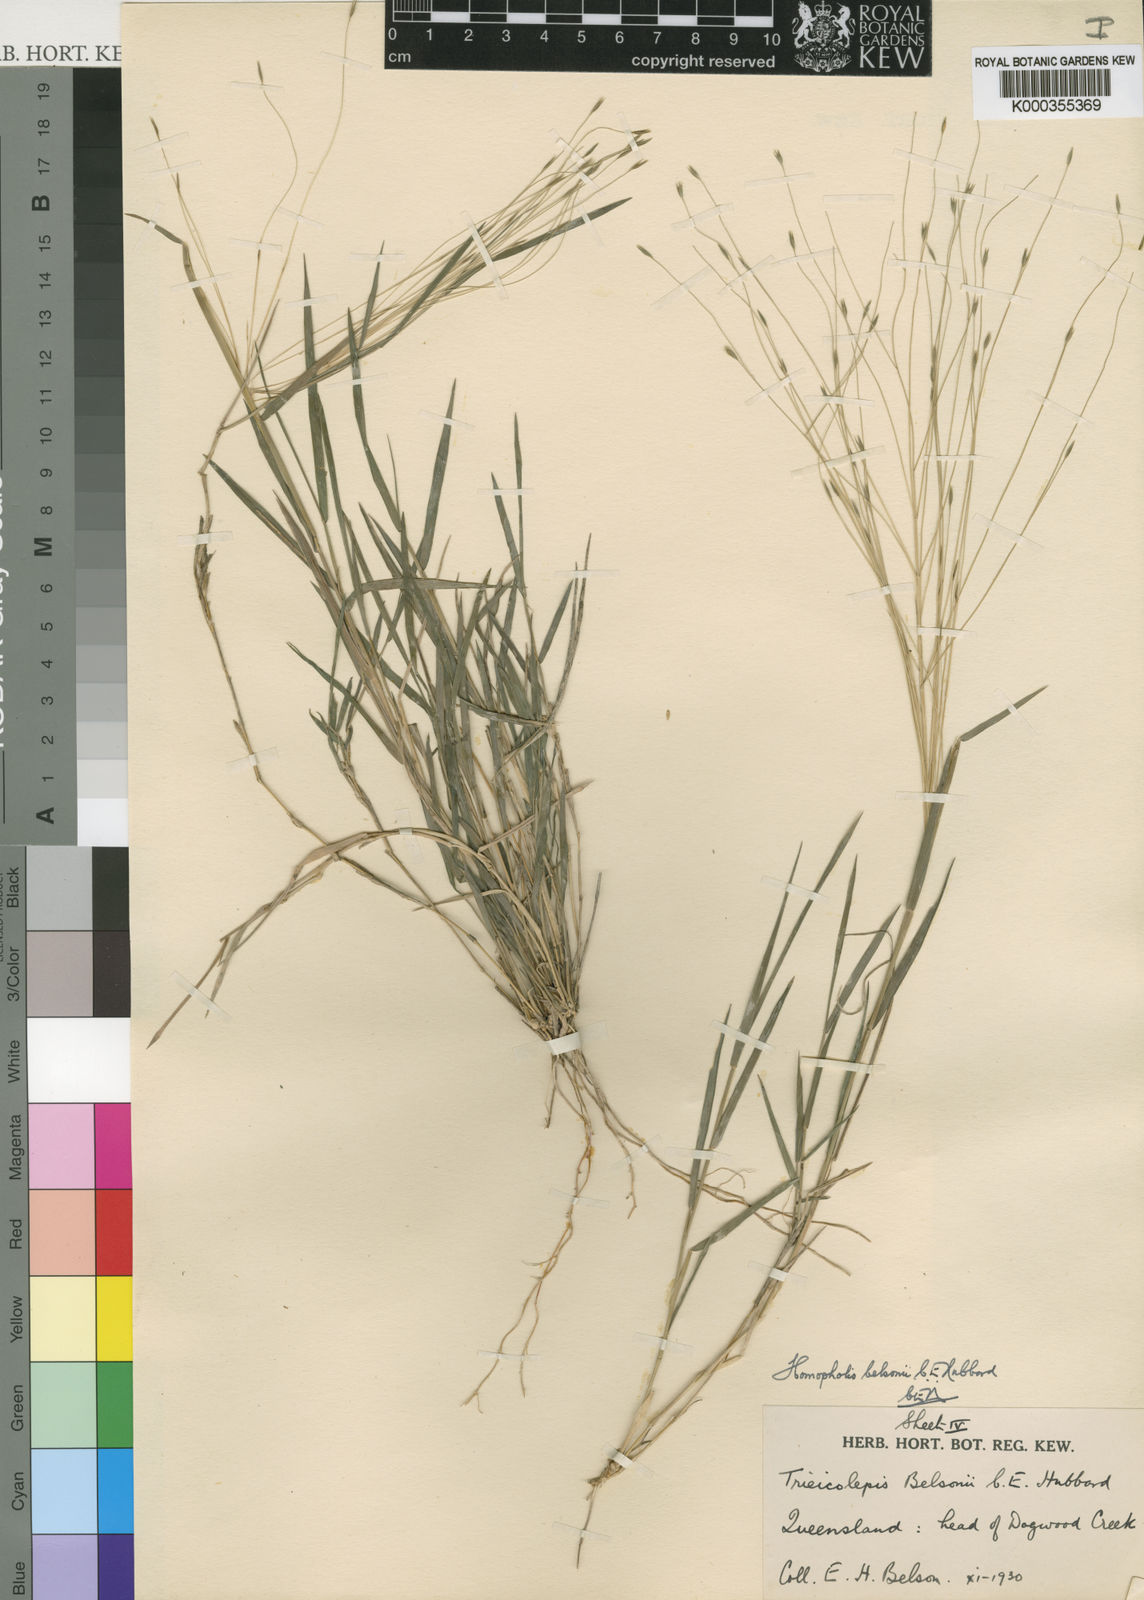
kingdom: Plantae
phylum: Tracheophyta
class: Liliopsida
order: Poales
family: Poaceae
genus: Homopholis
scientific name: Homopholis belsonii
